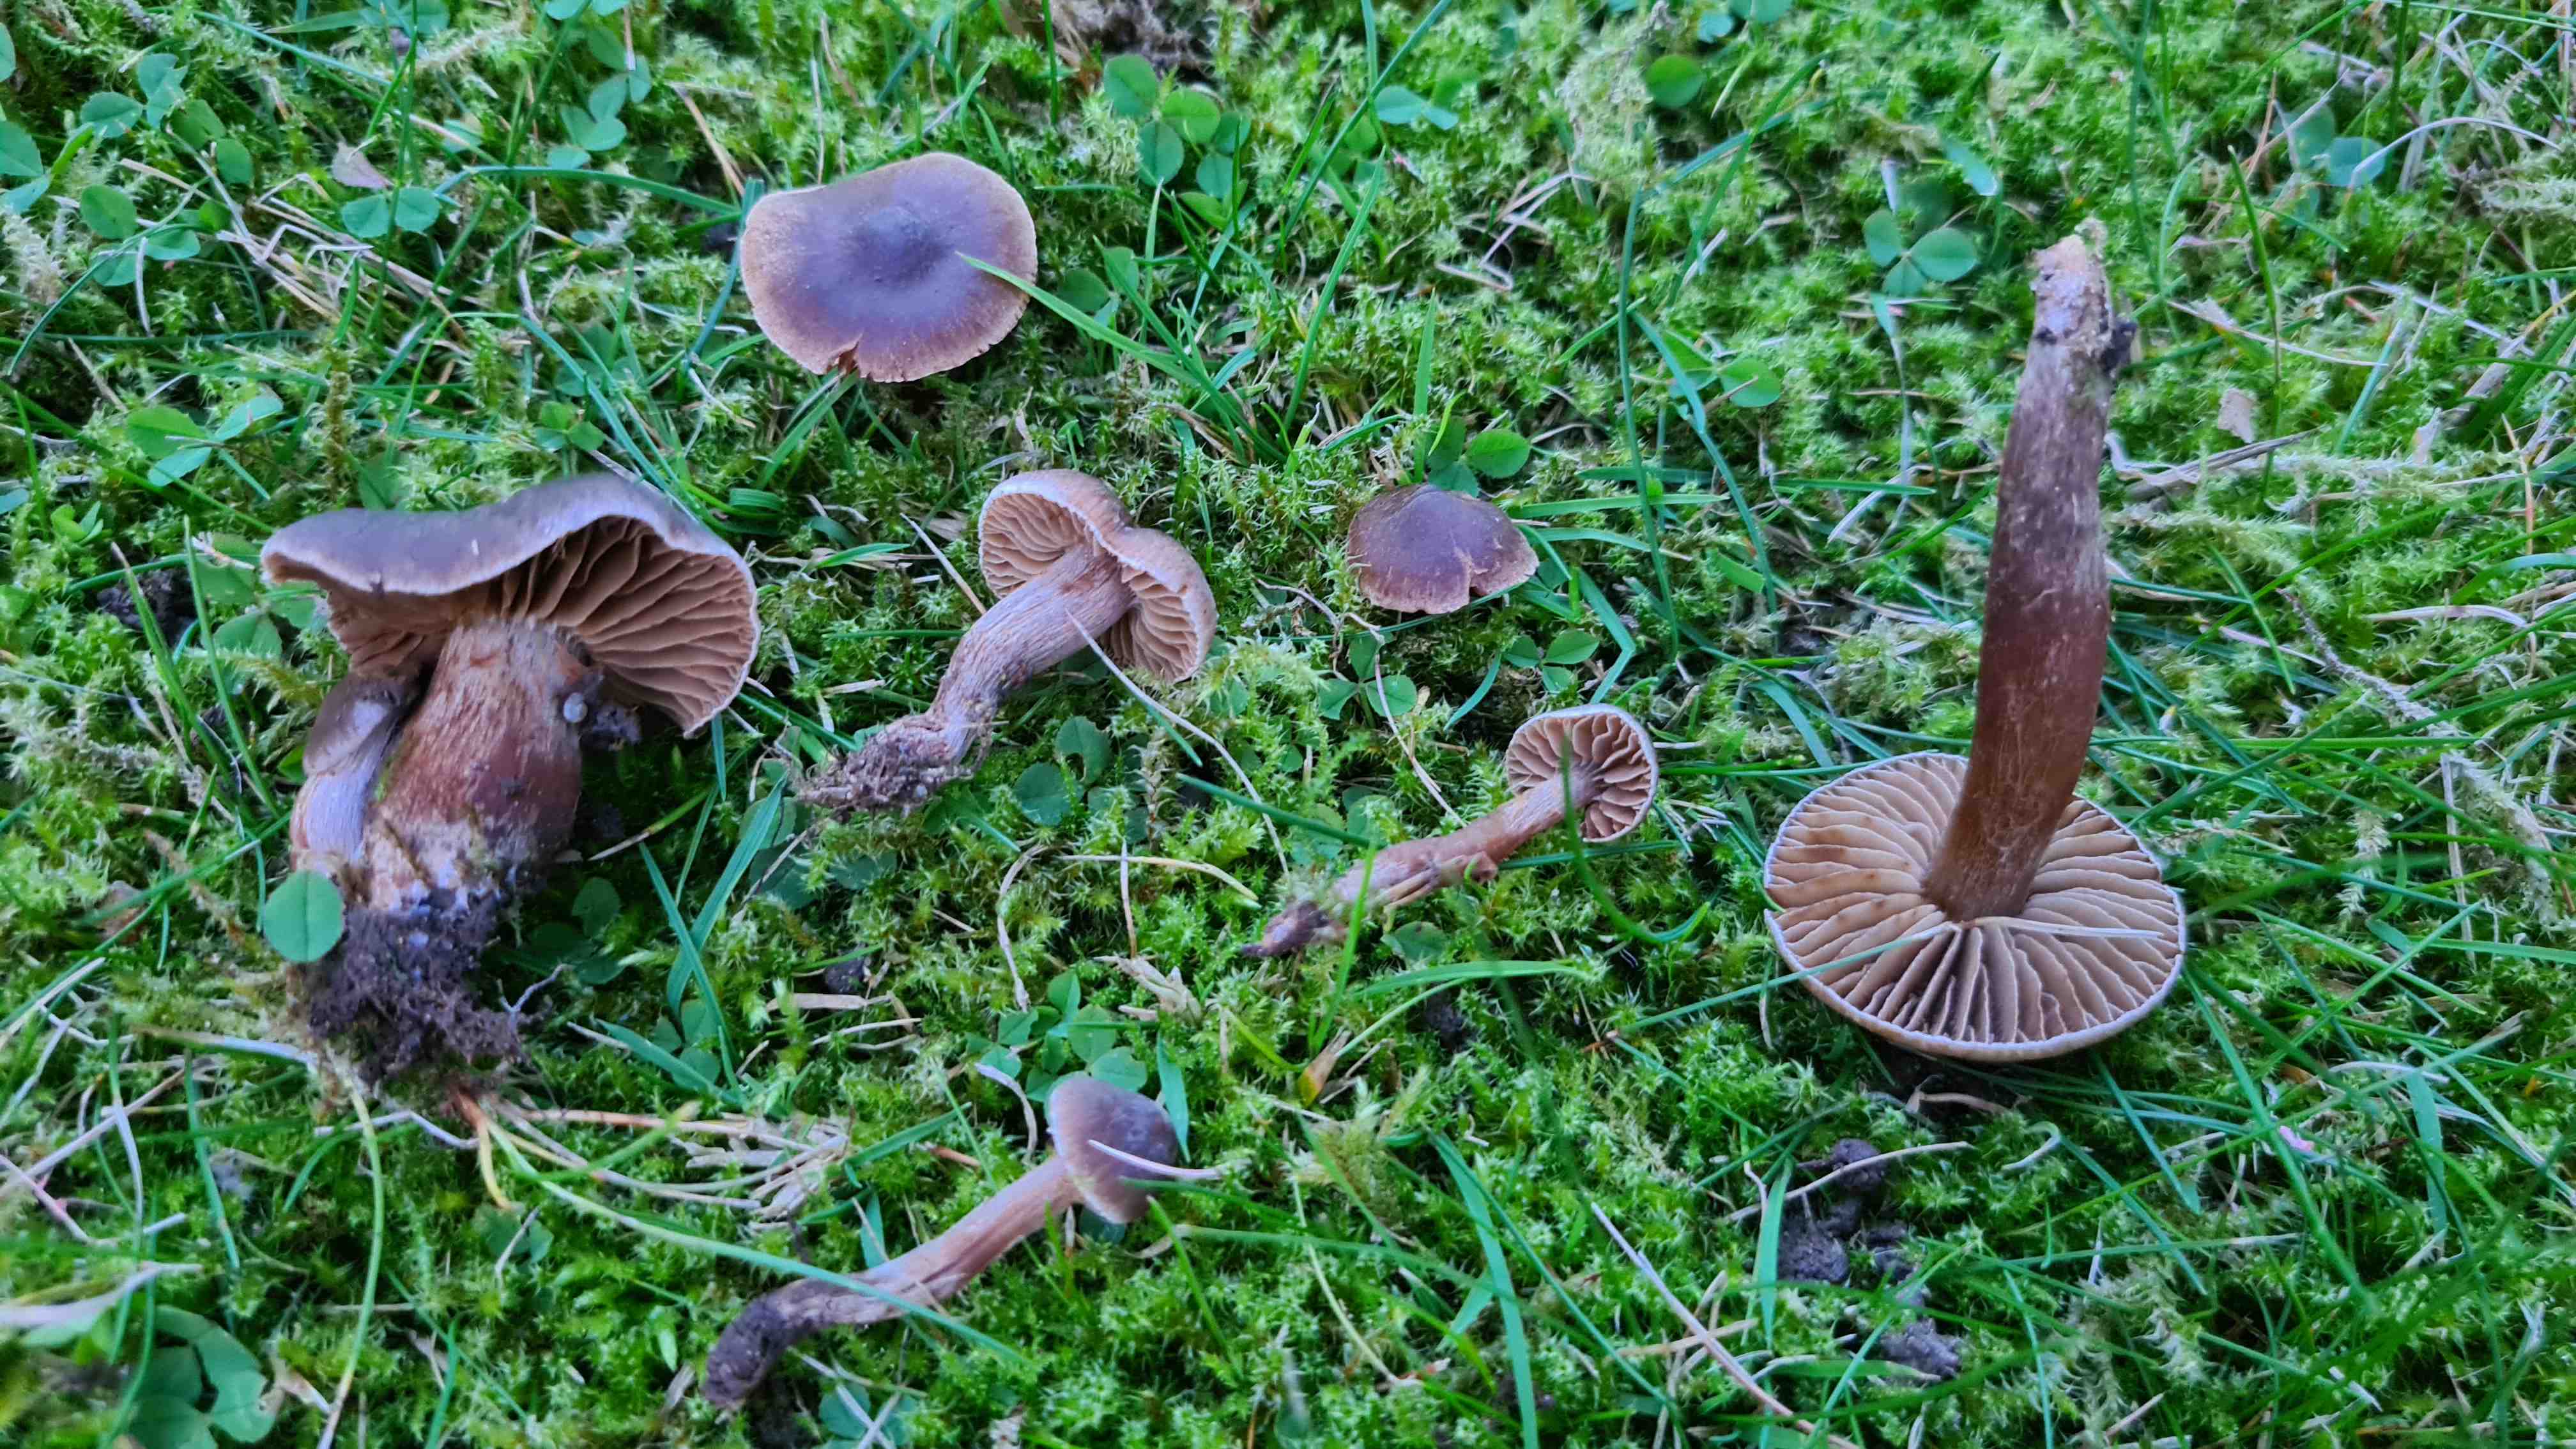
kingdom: Fungi
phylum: Basidiomycota
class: Agaricomycetes
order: Agaricales
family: Cortinariaceae
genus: Cortinarius
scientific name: Cortinarius
